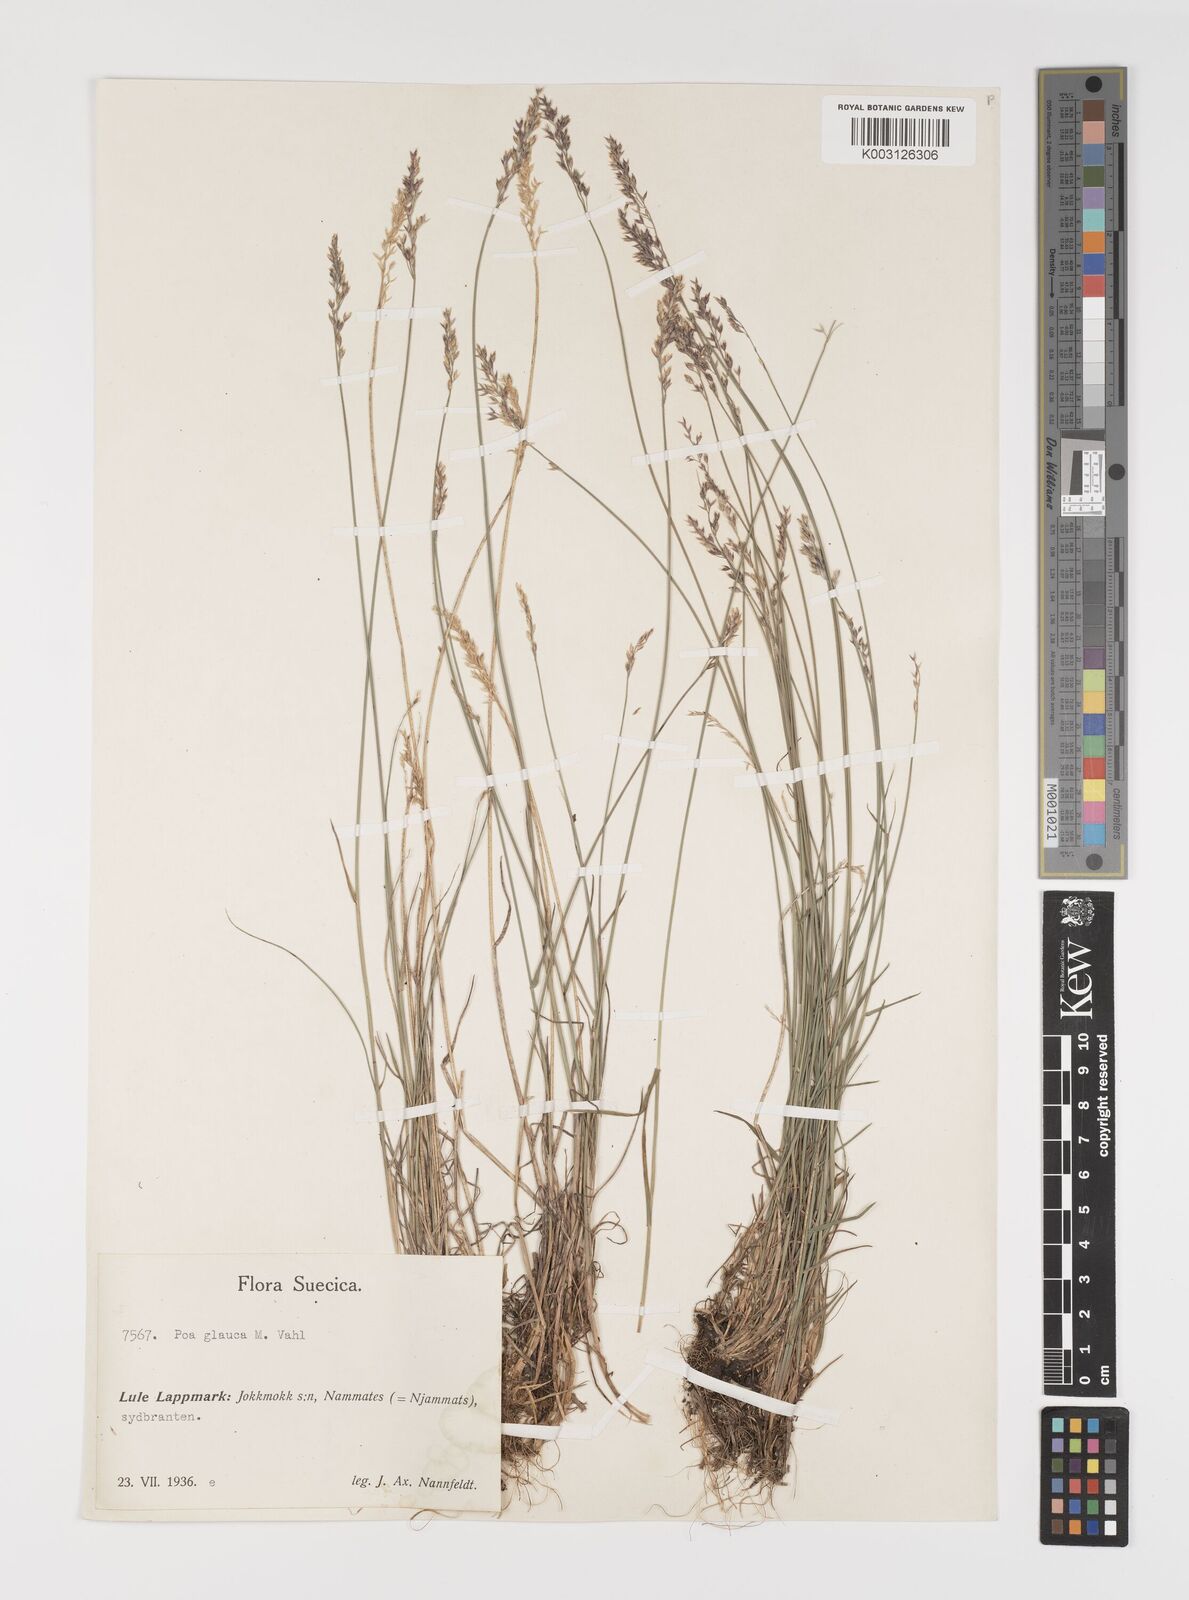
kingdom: Plantae
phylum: Tracheophyta
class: Liliopsida
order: Poales
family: Poaceae
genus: Poa
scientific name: Poa glauca
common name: Glaucous bluegrass
